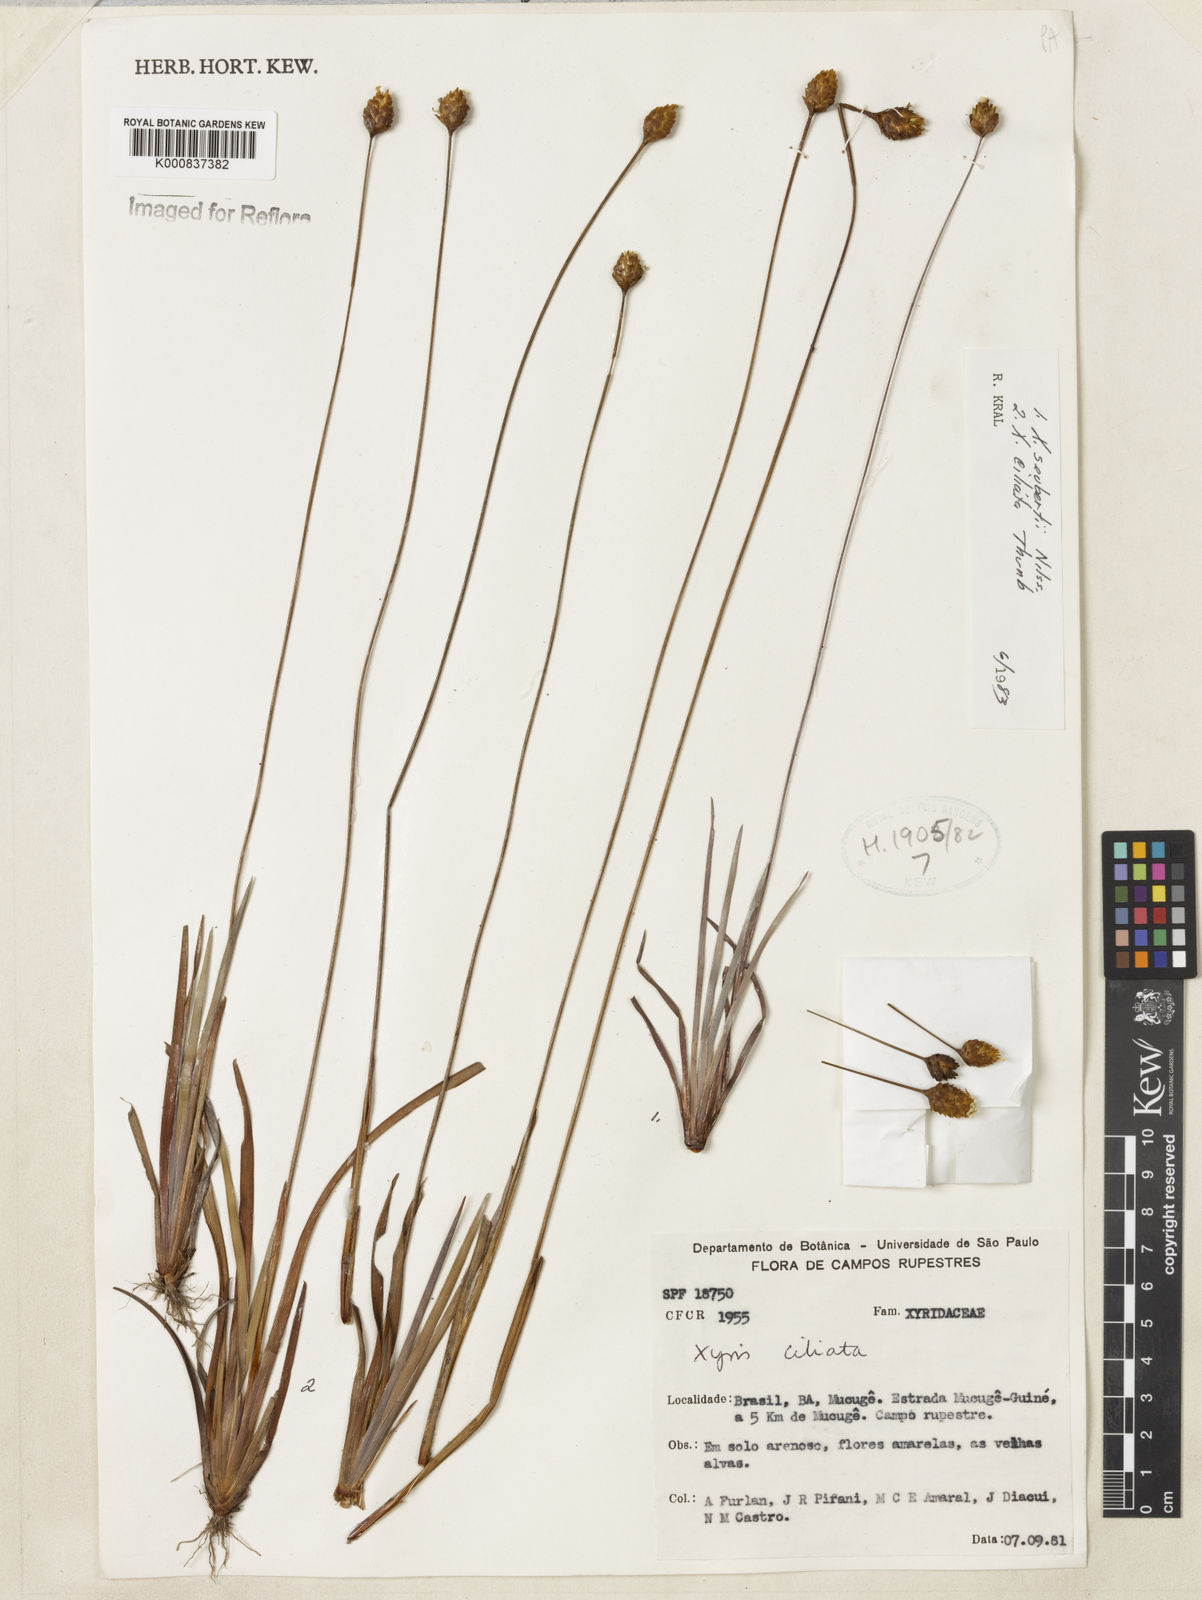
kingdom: Plantae
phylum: Tracheophyta
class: Liliopsida
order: Poales
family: Xyridaceae
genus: Xyris
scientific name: Xyris ciliata
